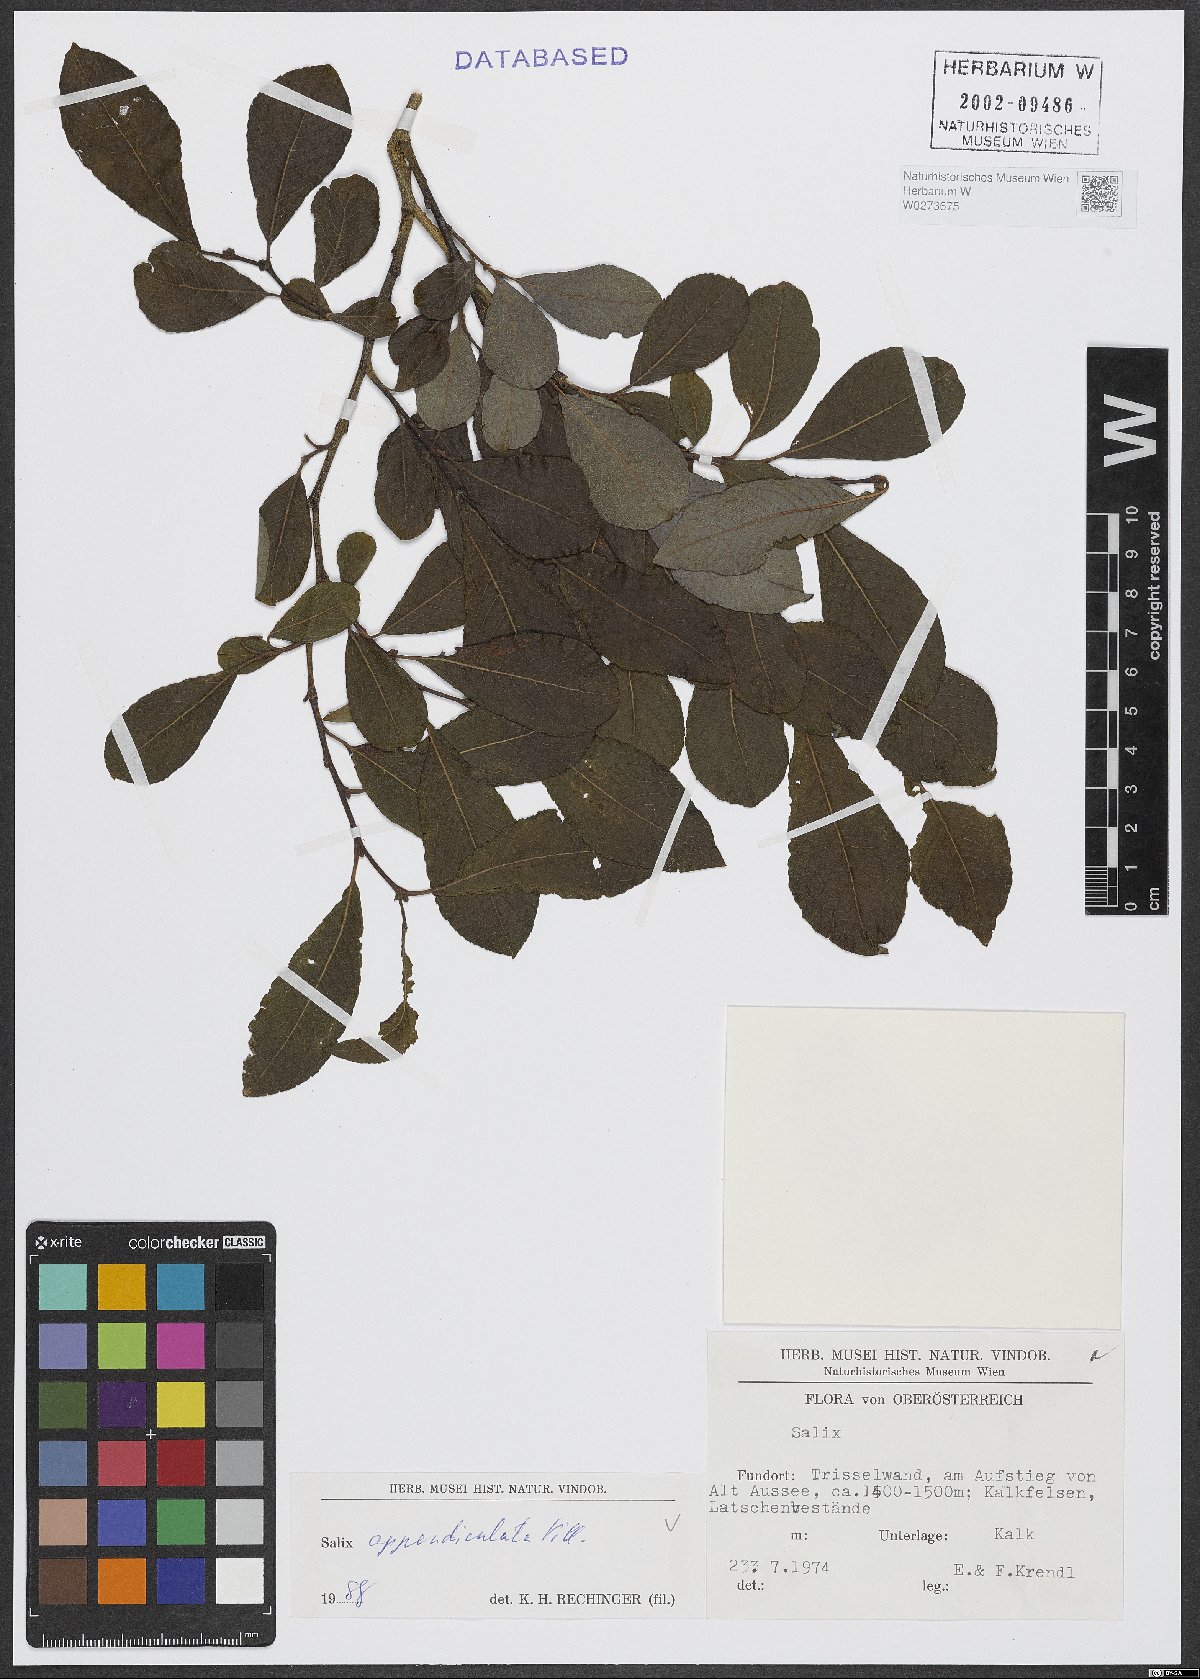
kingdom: Plantae
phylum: Tracheophyta
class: Magnoliopsida
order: Malpighiales
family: Salicaceae
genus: Salix
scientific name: Salix appendiculata
